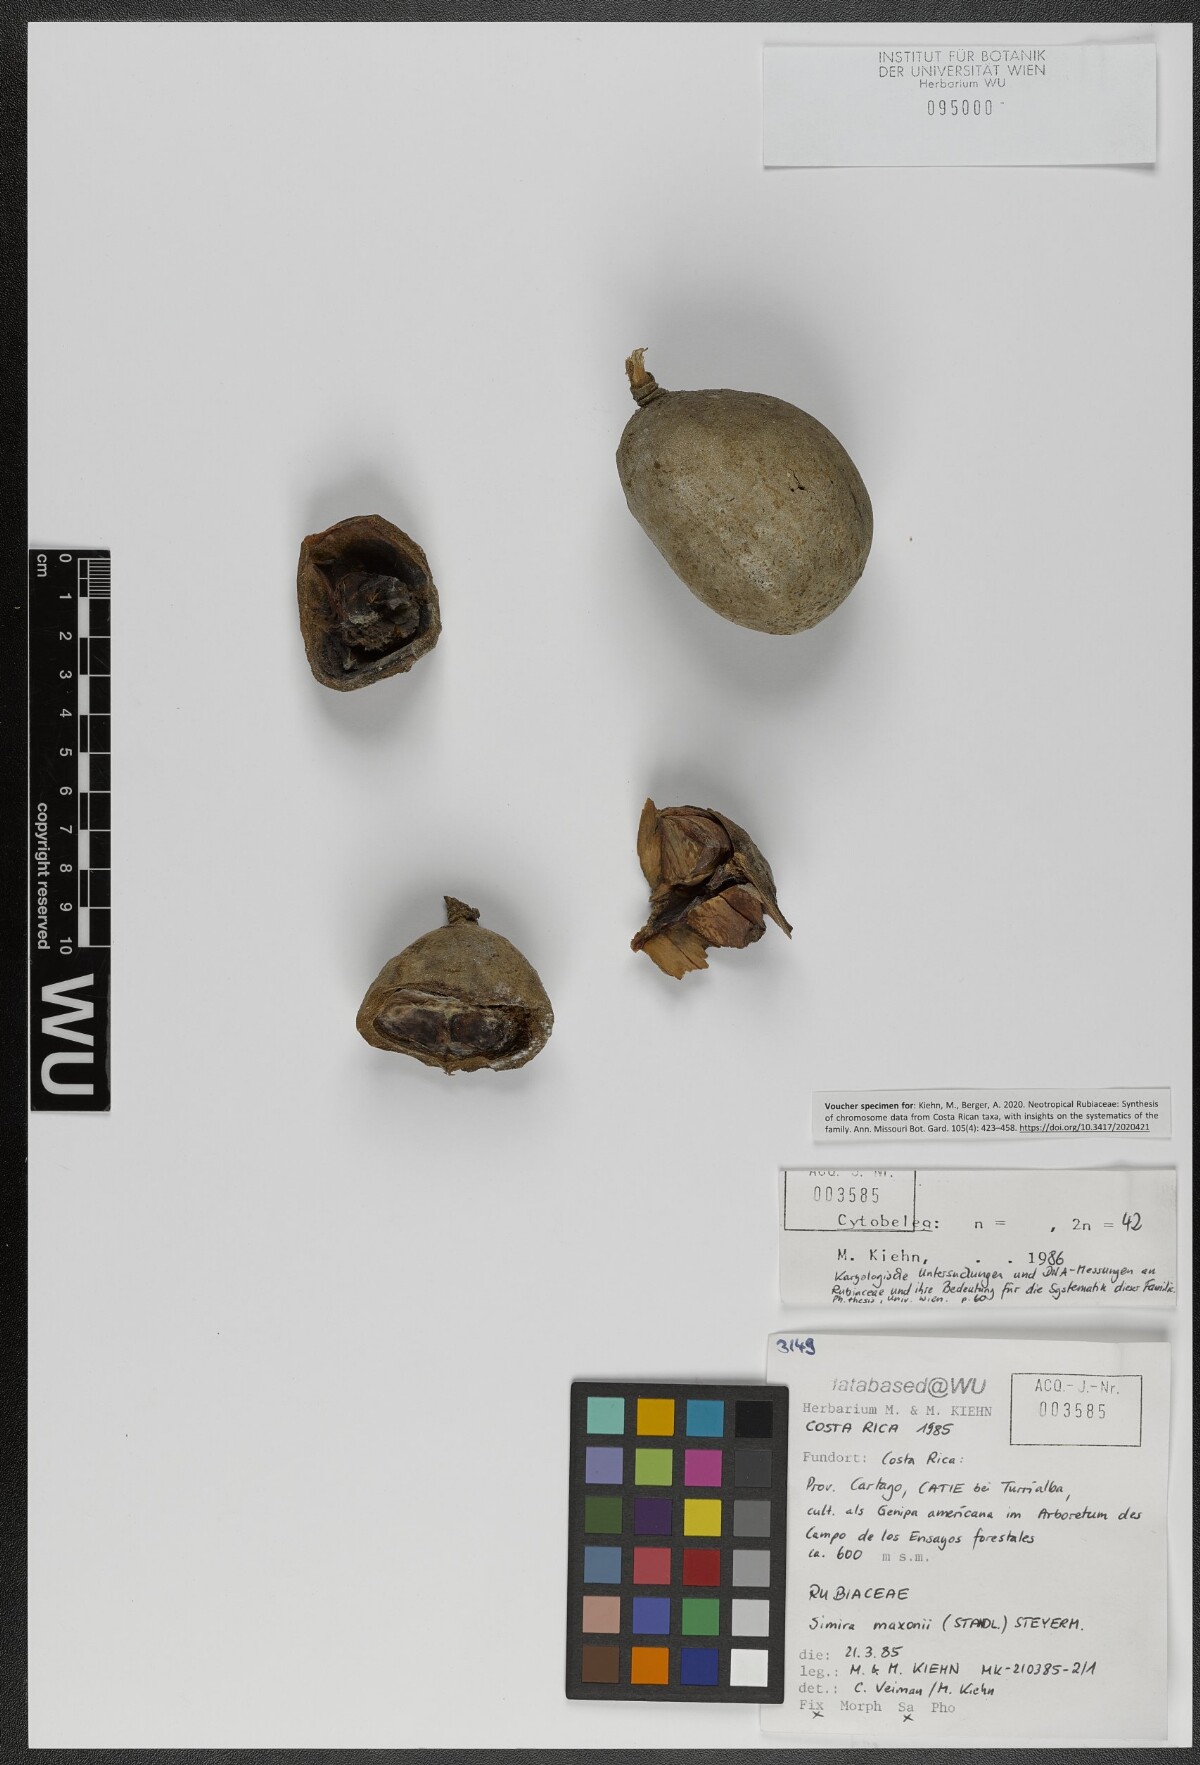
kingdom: Plantae
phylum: Tracheophyta
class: Magnoliopsida
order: Gentianales
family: Rubiaceae
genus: Simira
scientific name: Simira maxonii
